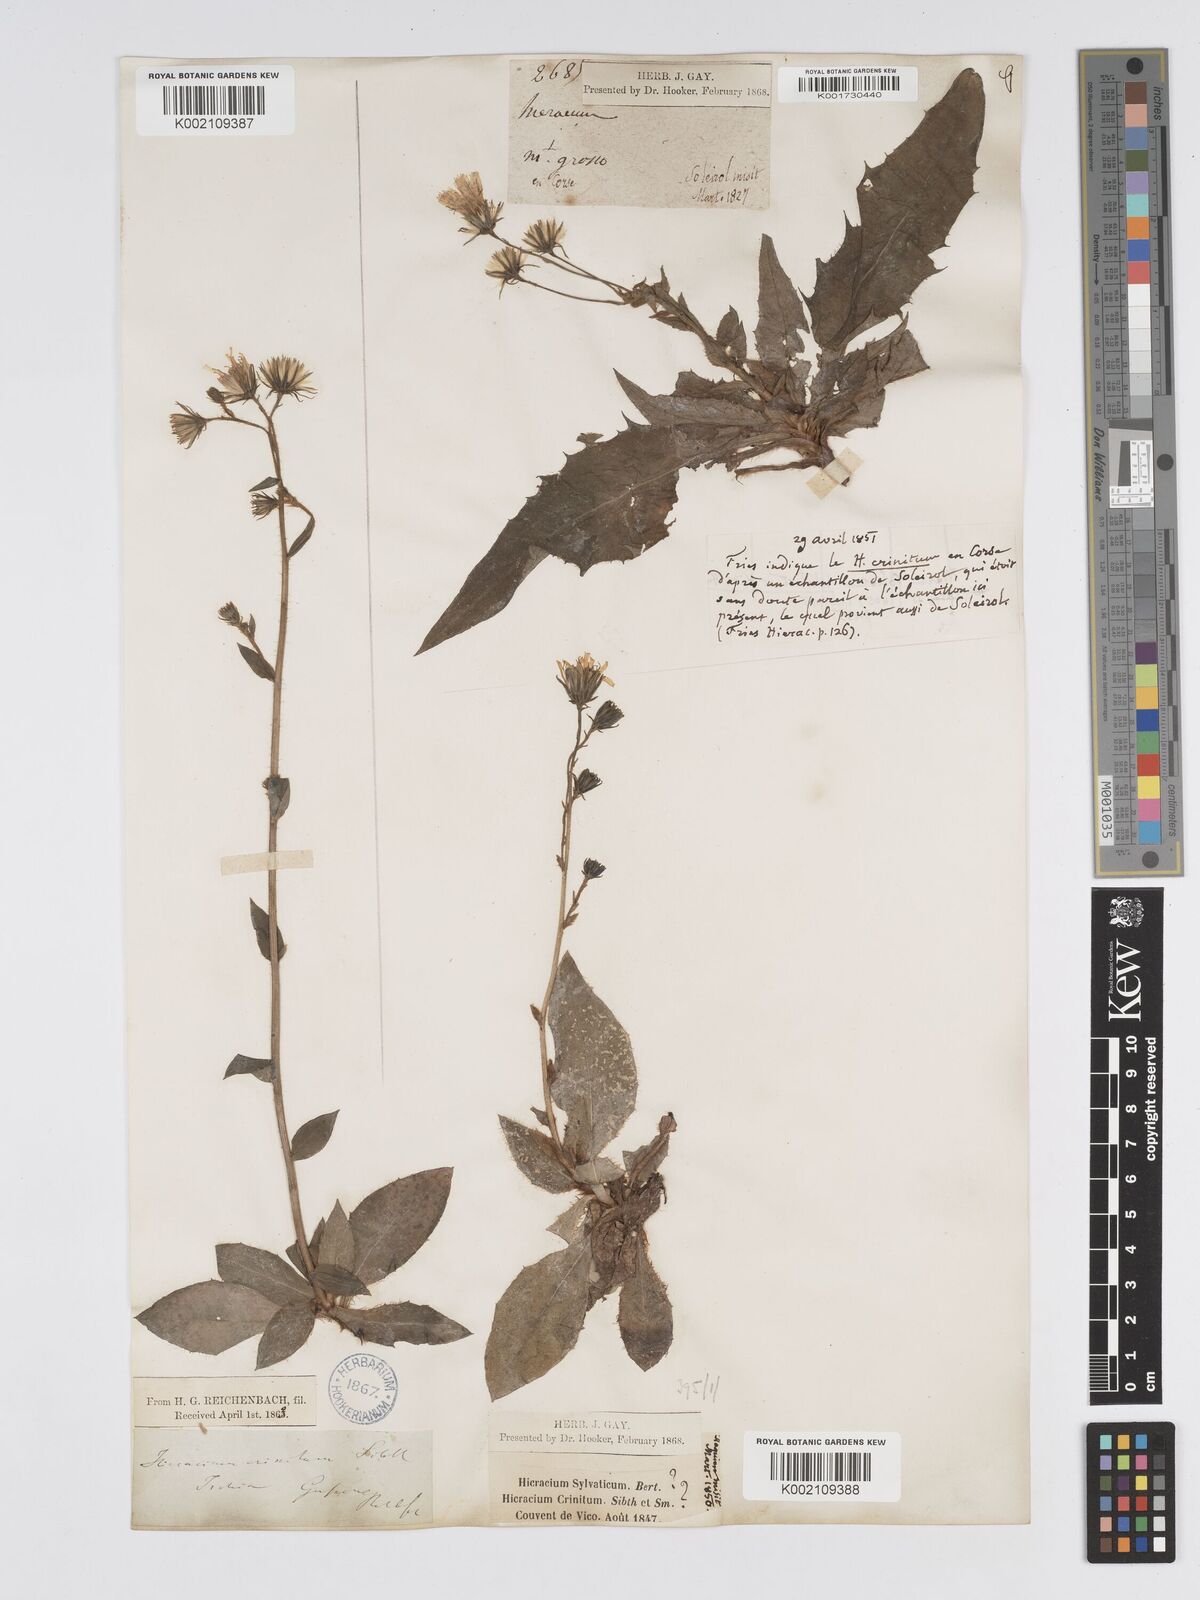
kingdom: Plantae
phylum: Tracheophyta
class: Magnoliopsida
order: Asterales
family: Asteraceae
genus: Hieracium
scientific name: Hieracium racemosum
